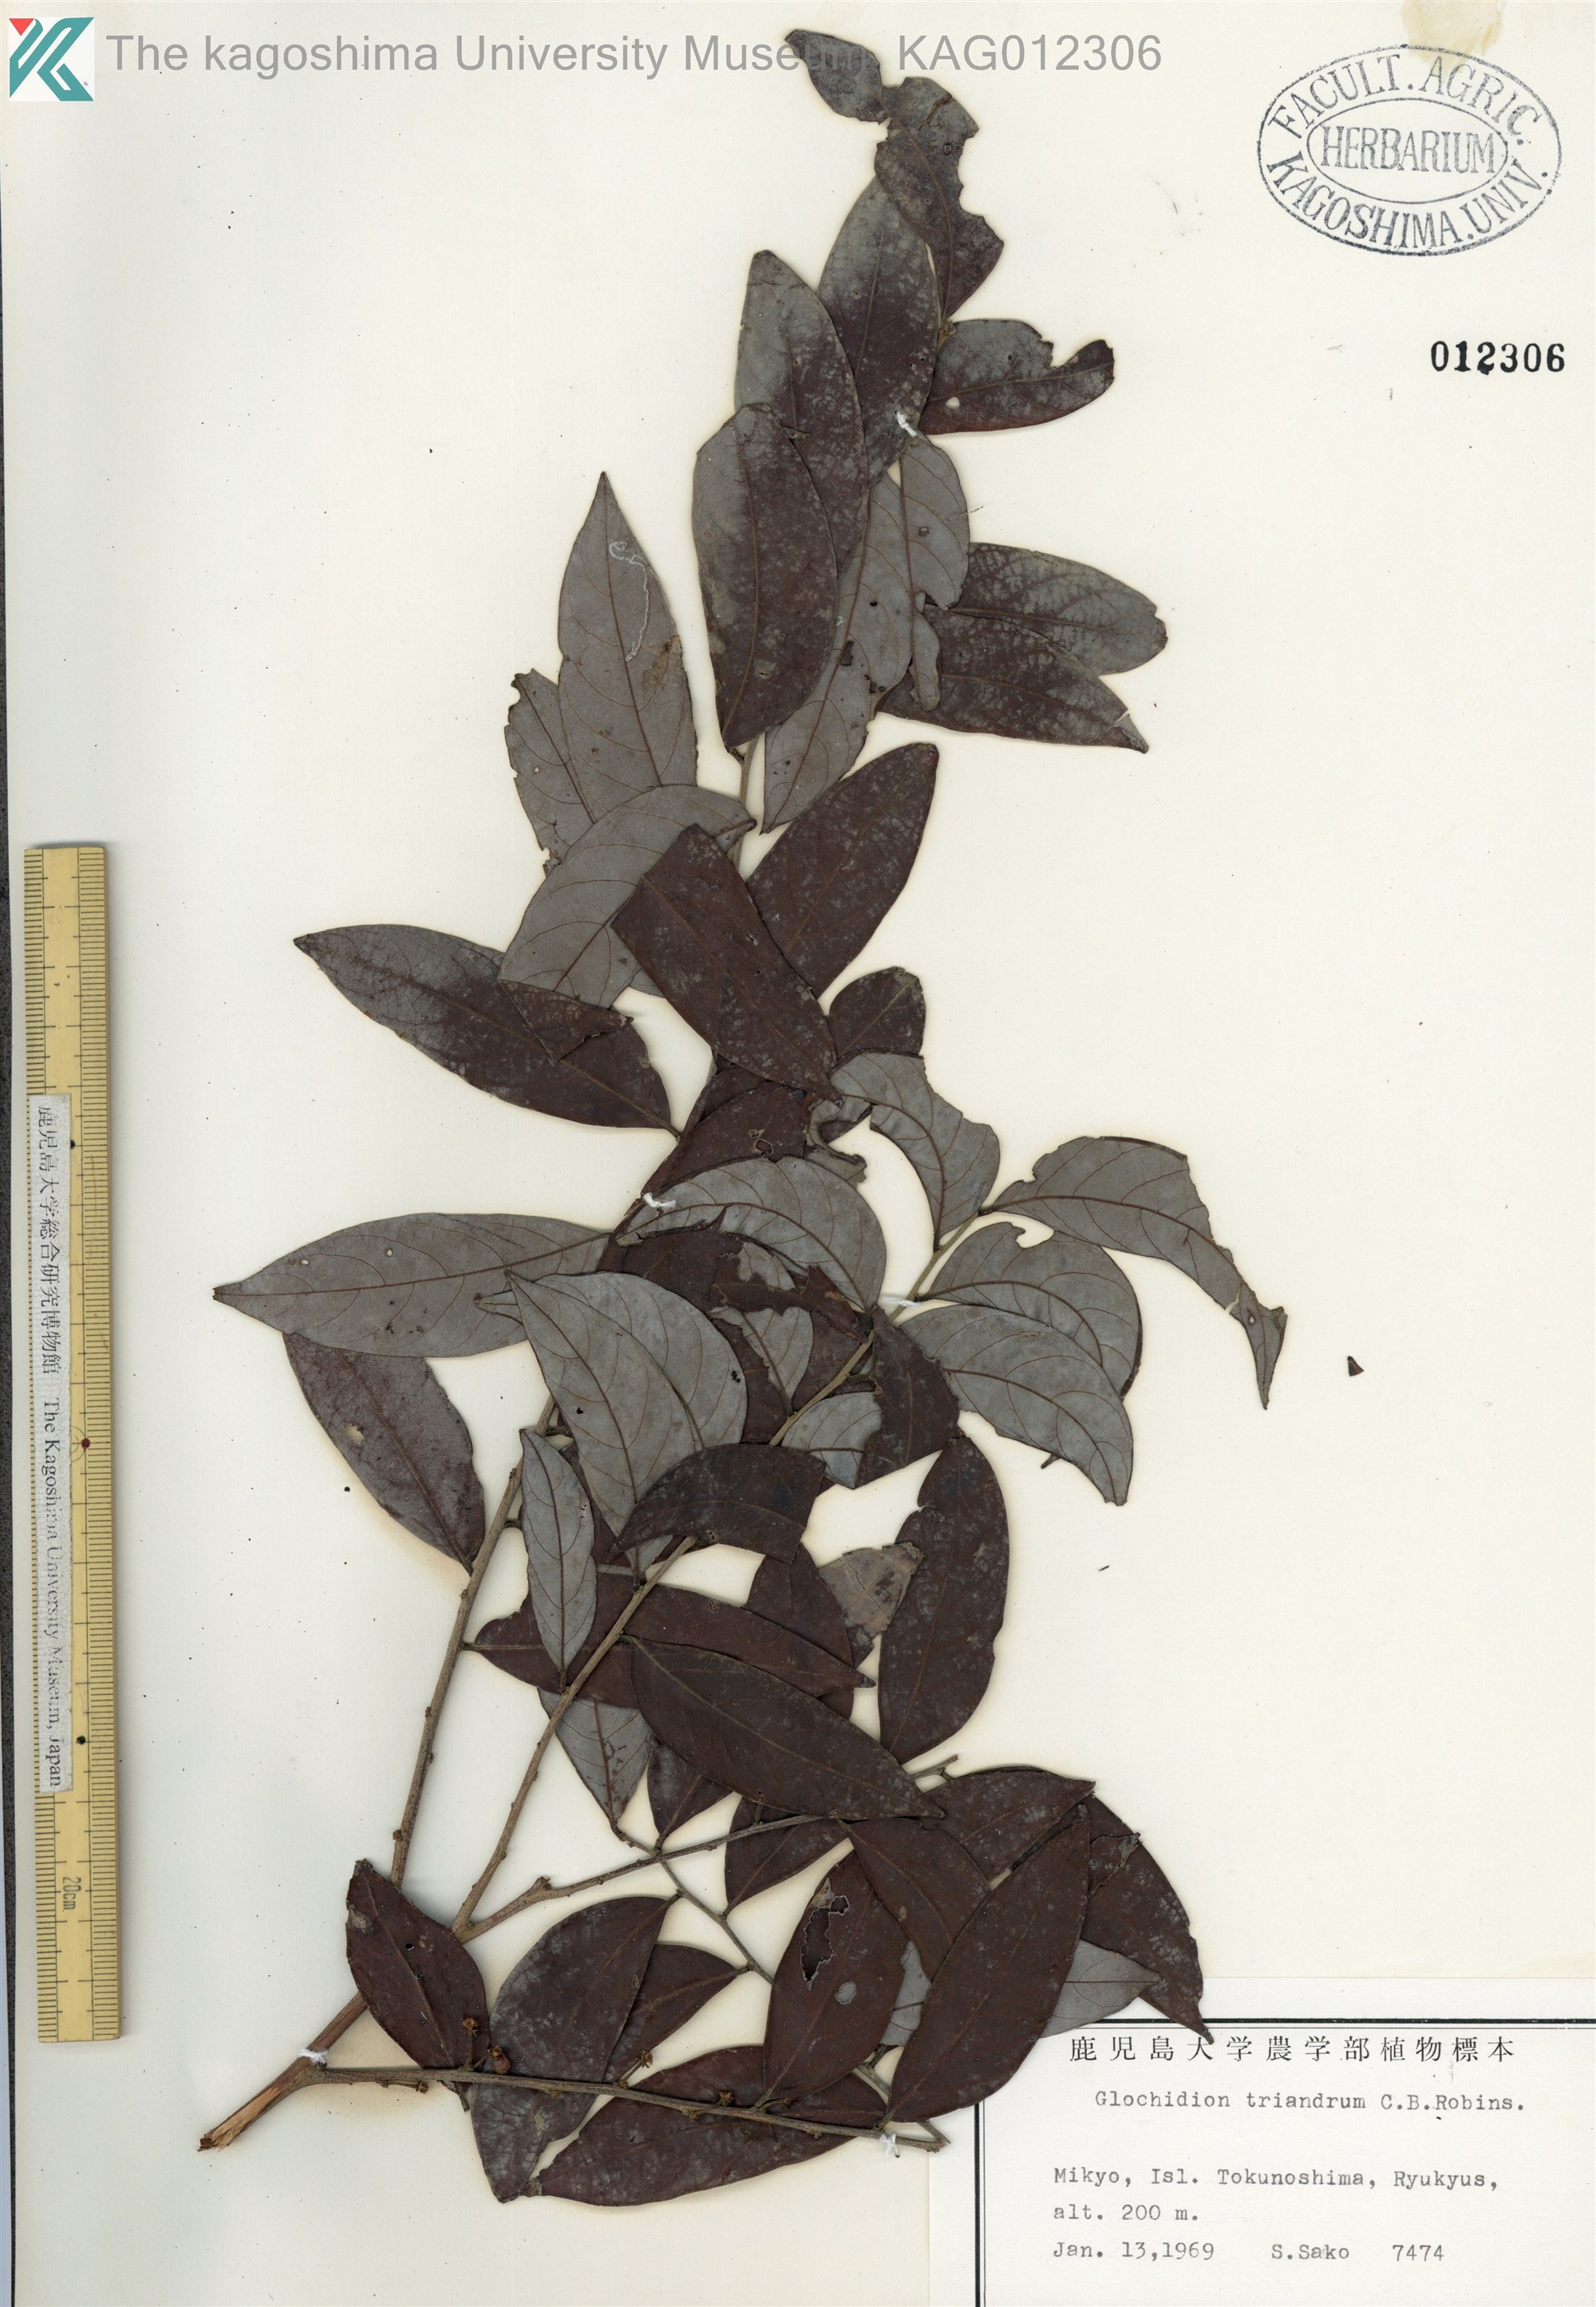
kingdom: Plantae
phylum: Tracheophyta
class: Magnoliopsida
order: Malpighiales
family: Phyllanthaceae
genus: Glochidion
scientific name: Glochidion triandrum
